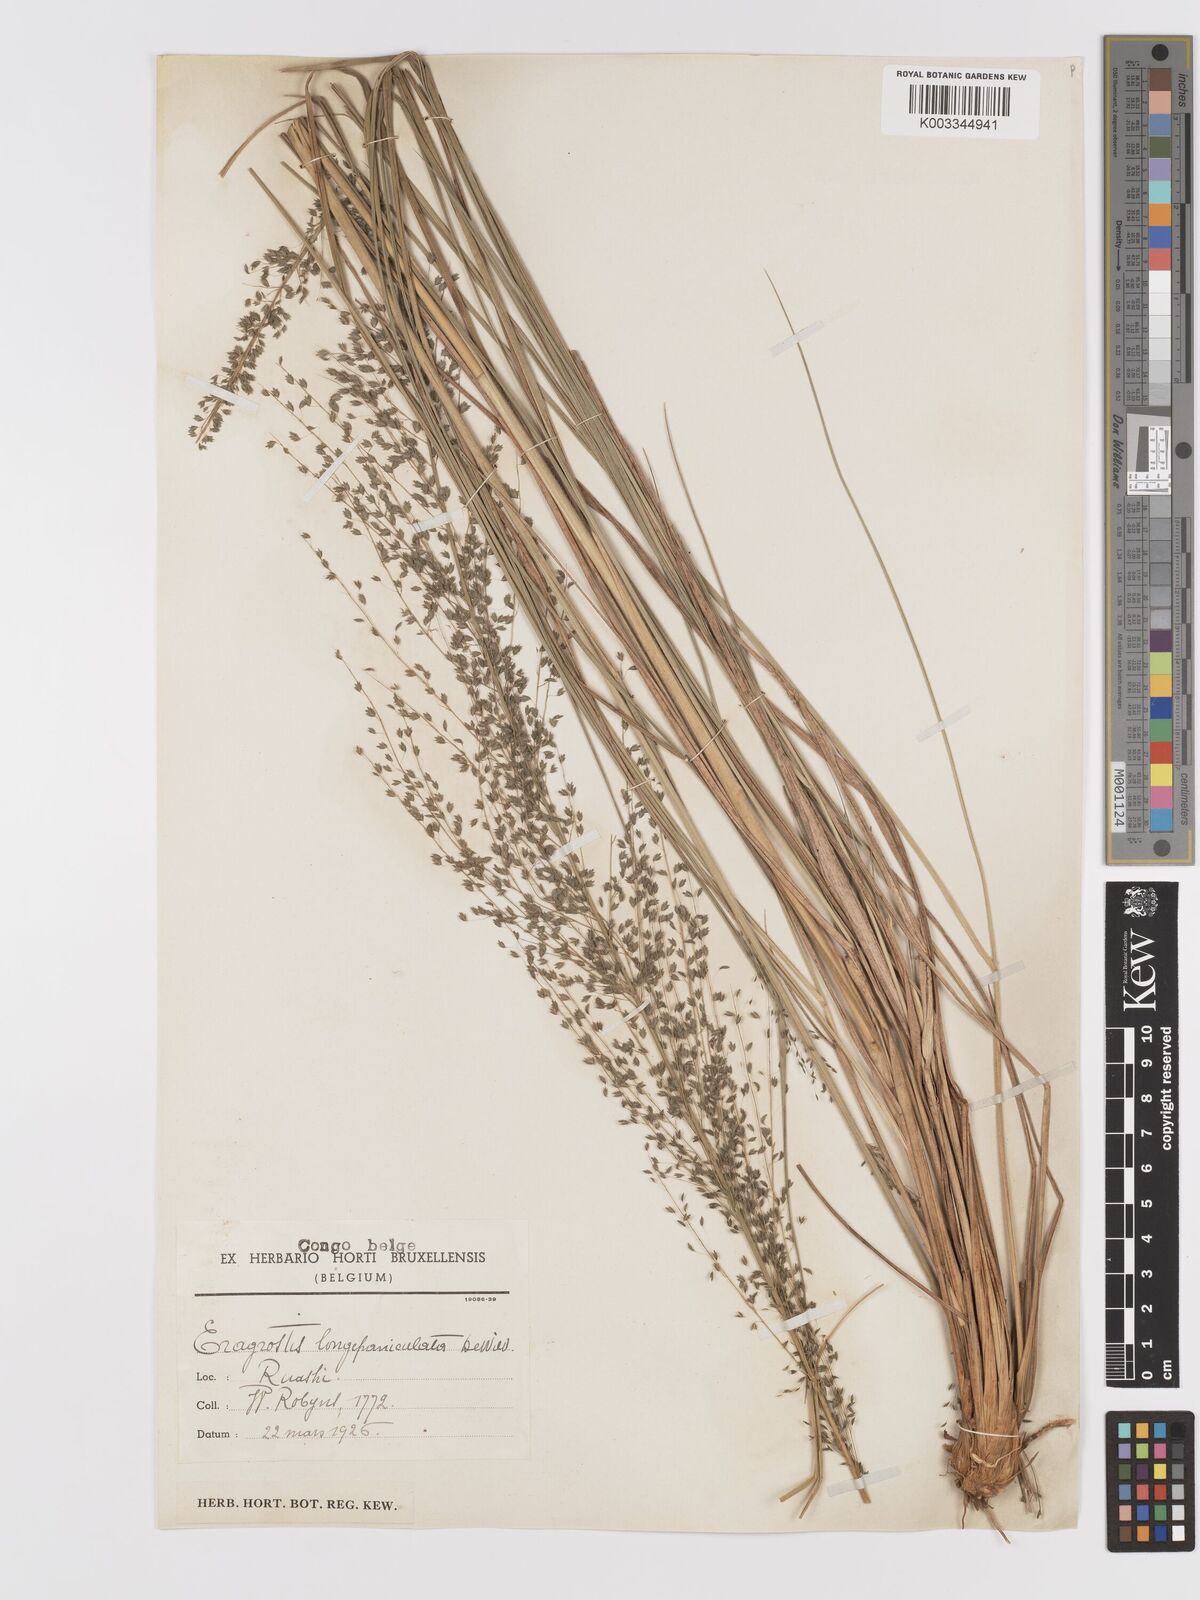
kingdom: Plantae
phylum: Tracheophyta
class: Liliopsida
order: Poales
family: Poaceae
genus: Eragrostis
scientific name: Eragrostis mollior
